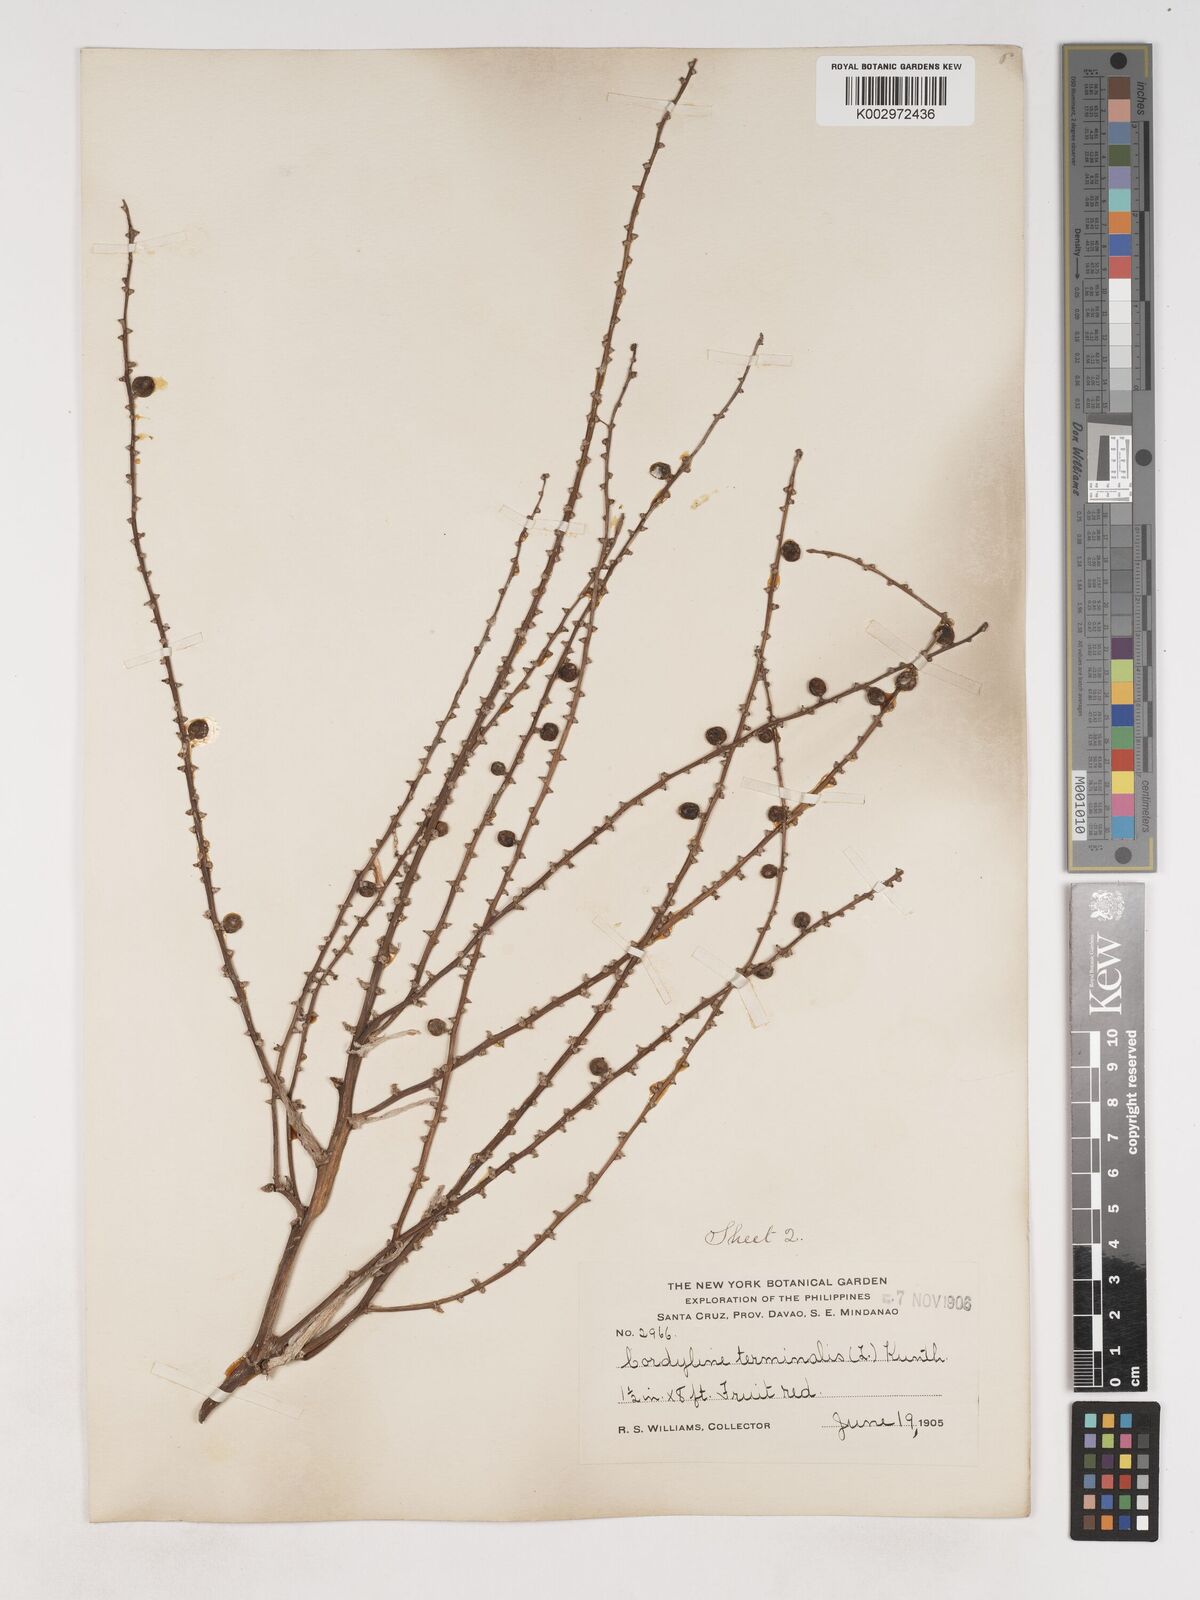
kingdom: Plantae
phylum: Tracheophyta
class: Liliopsida
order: Asparagales
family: Asparagaceae
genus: Cordyline
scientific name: Cordyline fruticosa
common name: Good-luck-plant
